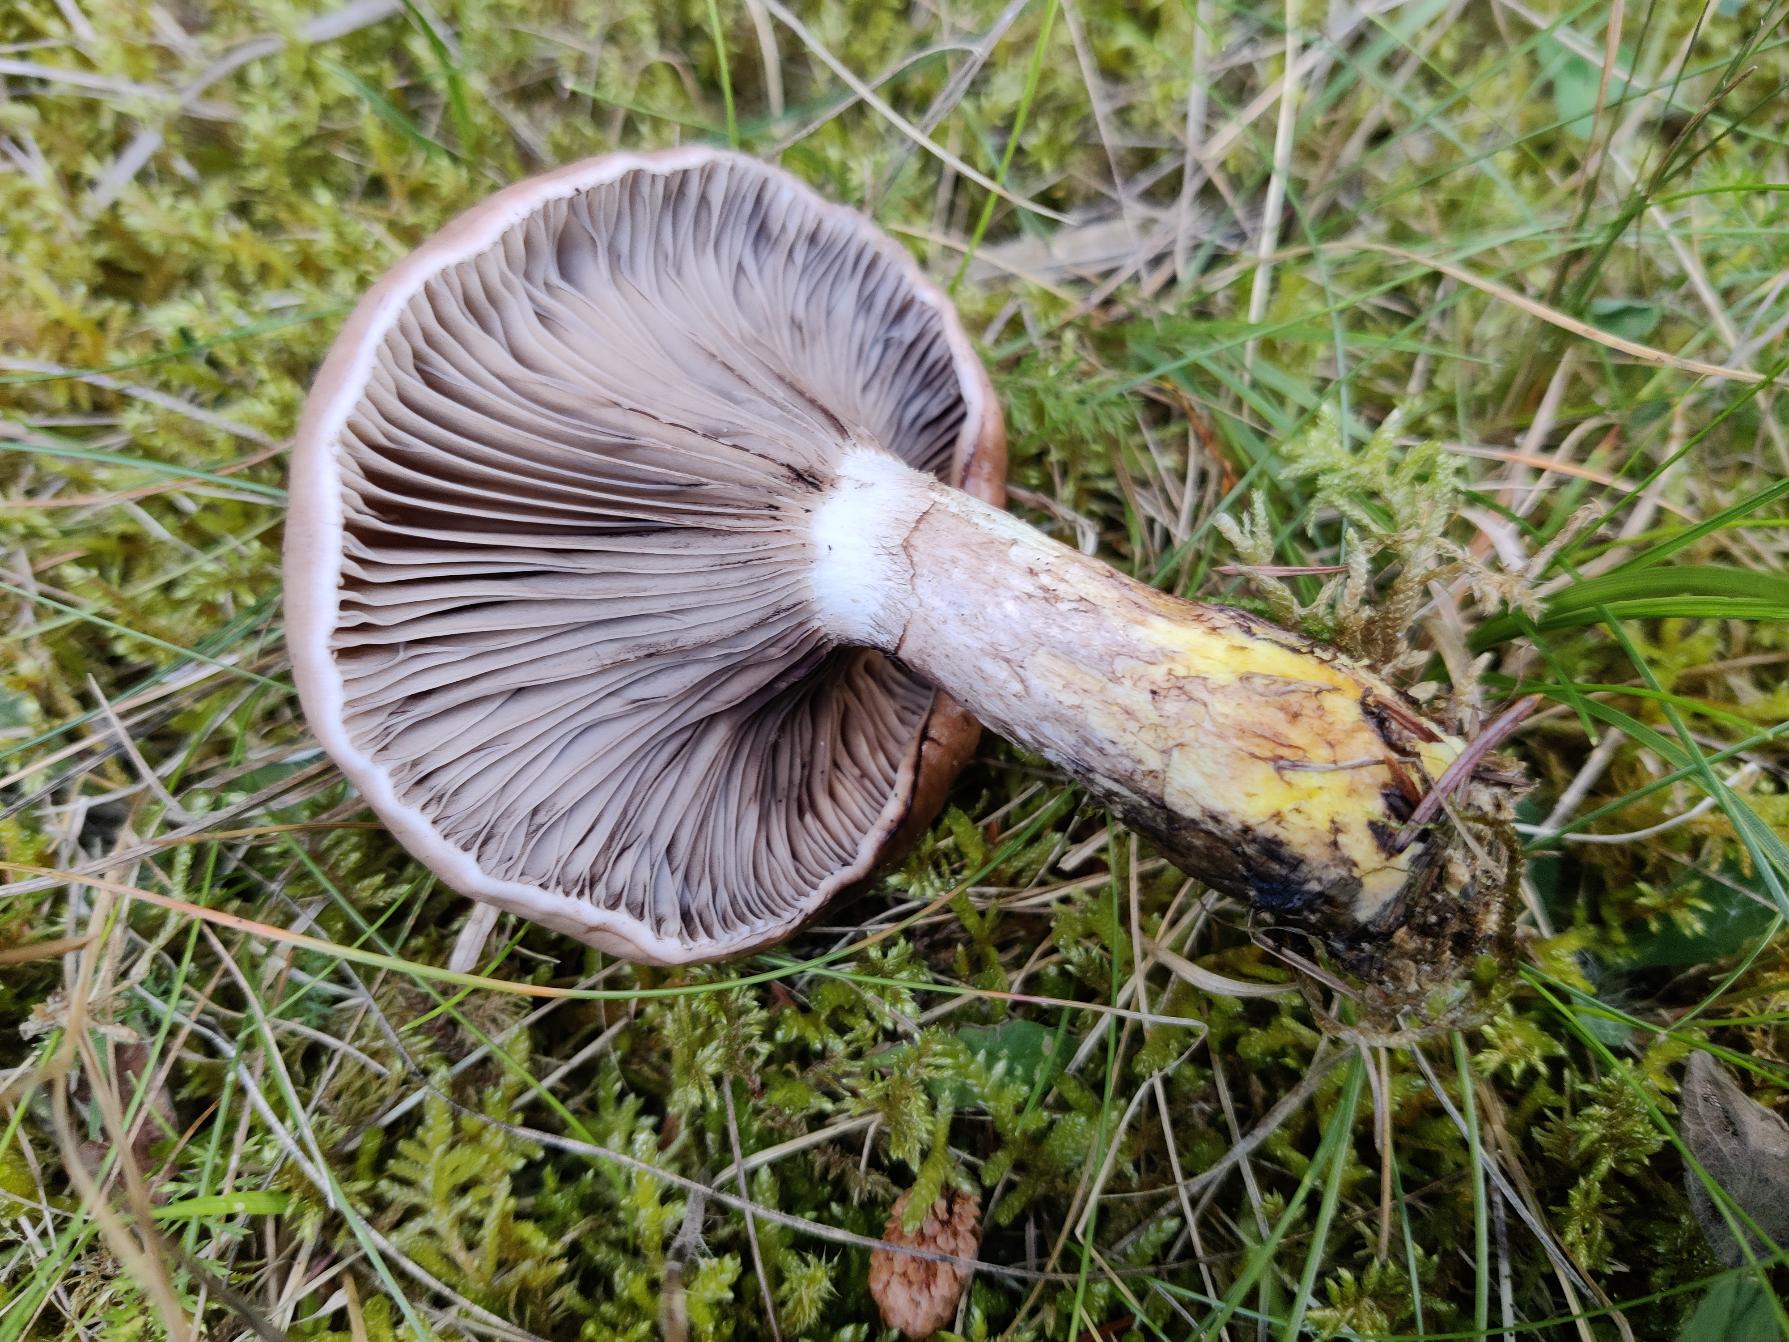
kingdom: Fungi
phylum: Basidiomycota
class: Agaricomycetes
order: Boletales
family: Gomphidiaceae
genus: Gomphidius
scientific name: Gomphidius glutinosus
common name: Grå slimslør
